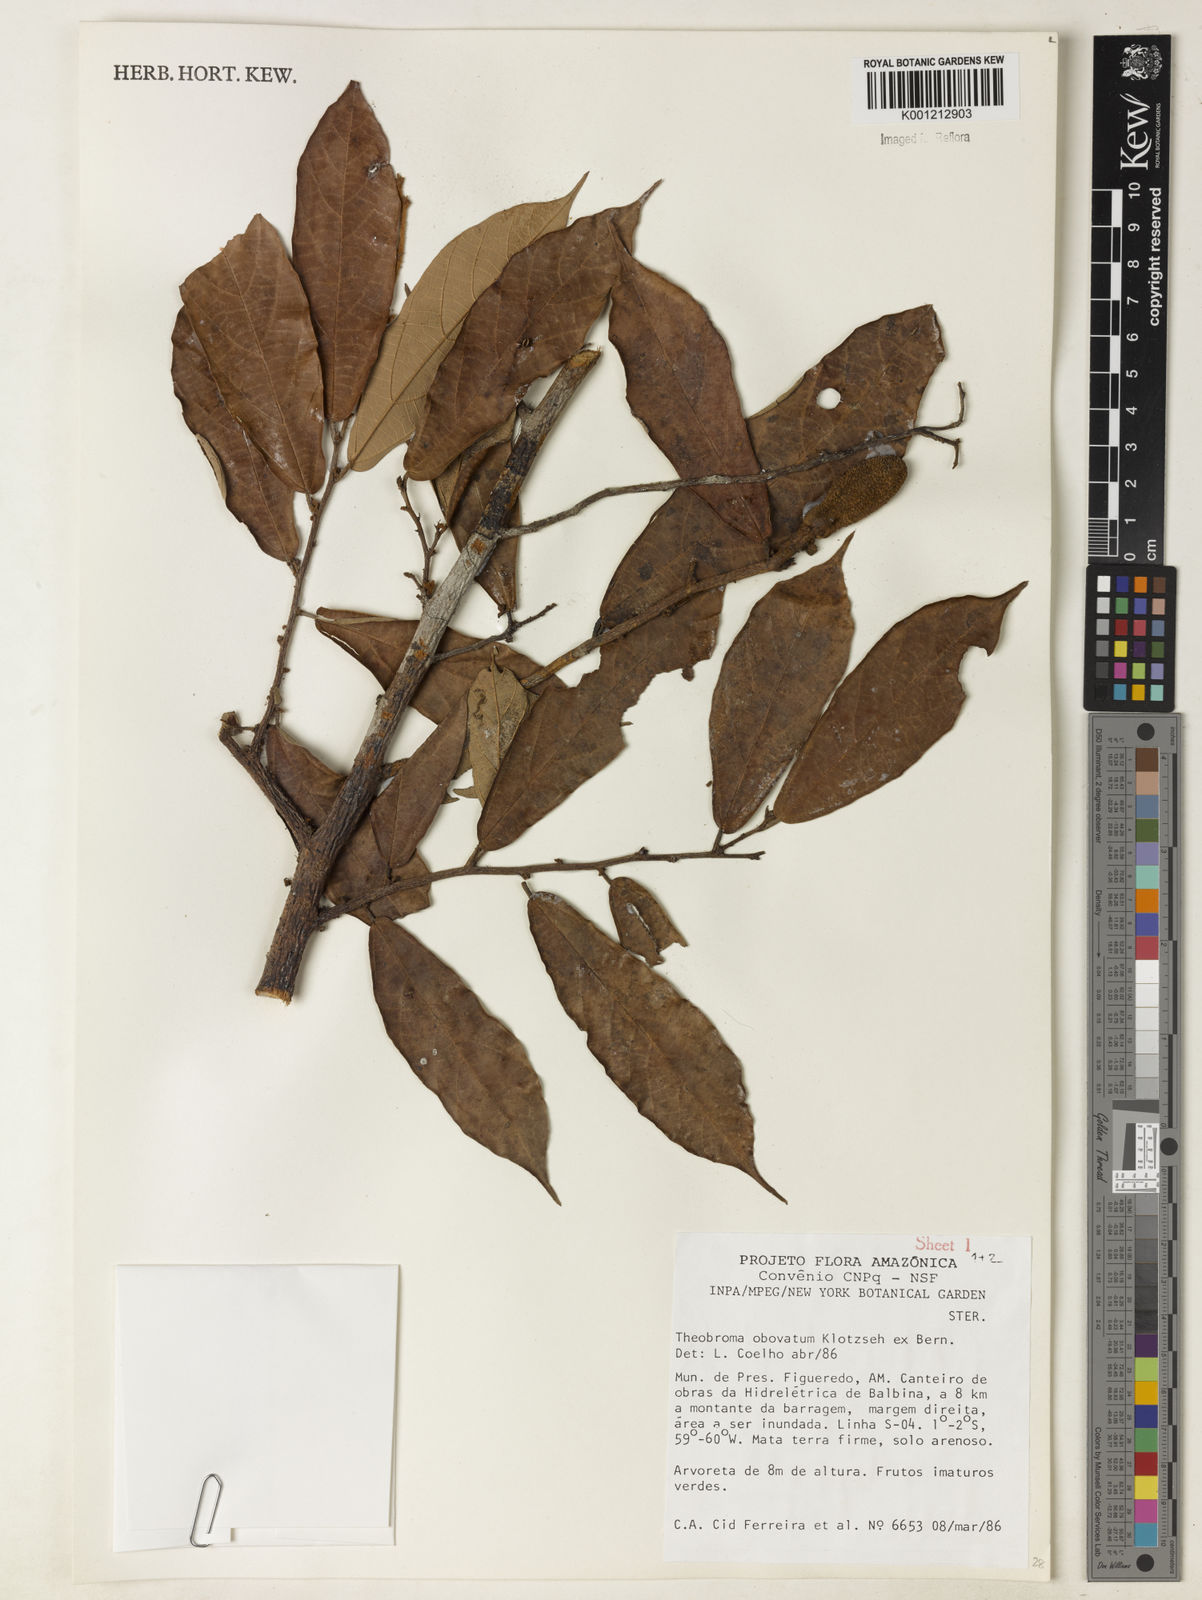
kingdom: Plantae
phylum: Tracheophyta
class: Magnoliopsida
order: Malvales
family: Malvaceae
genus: Theobroma
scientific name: Theobroma obovatum
